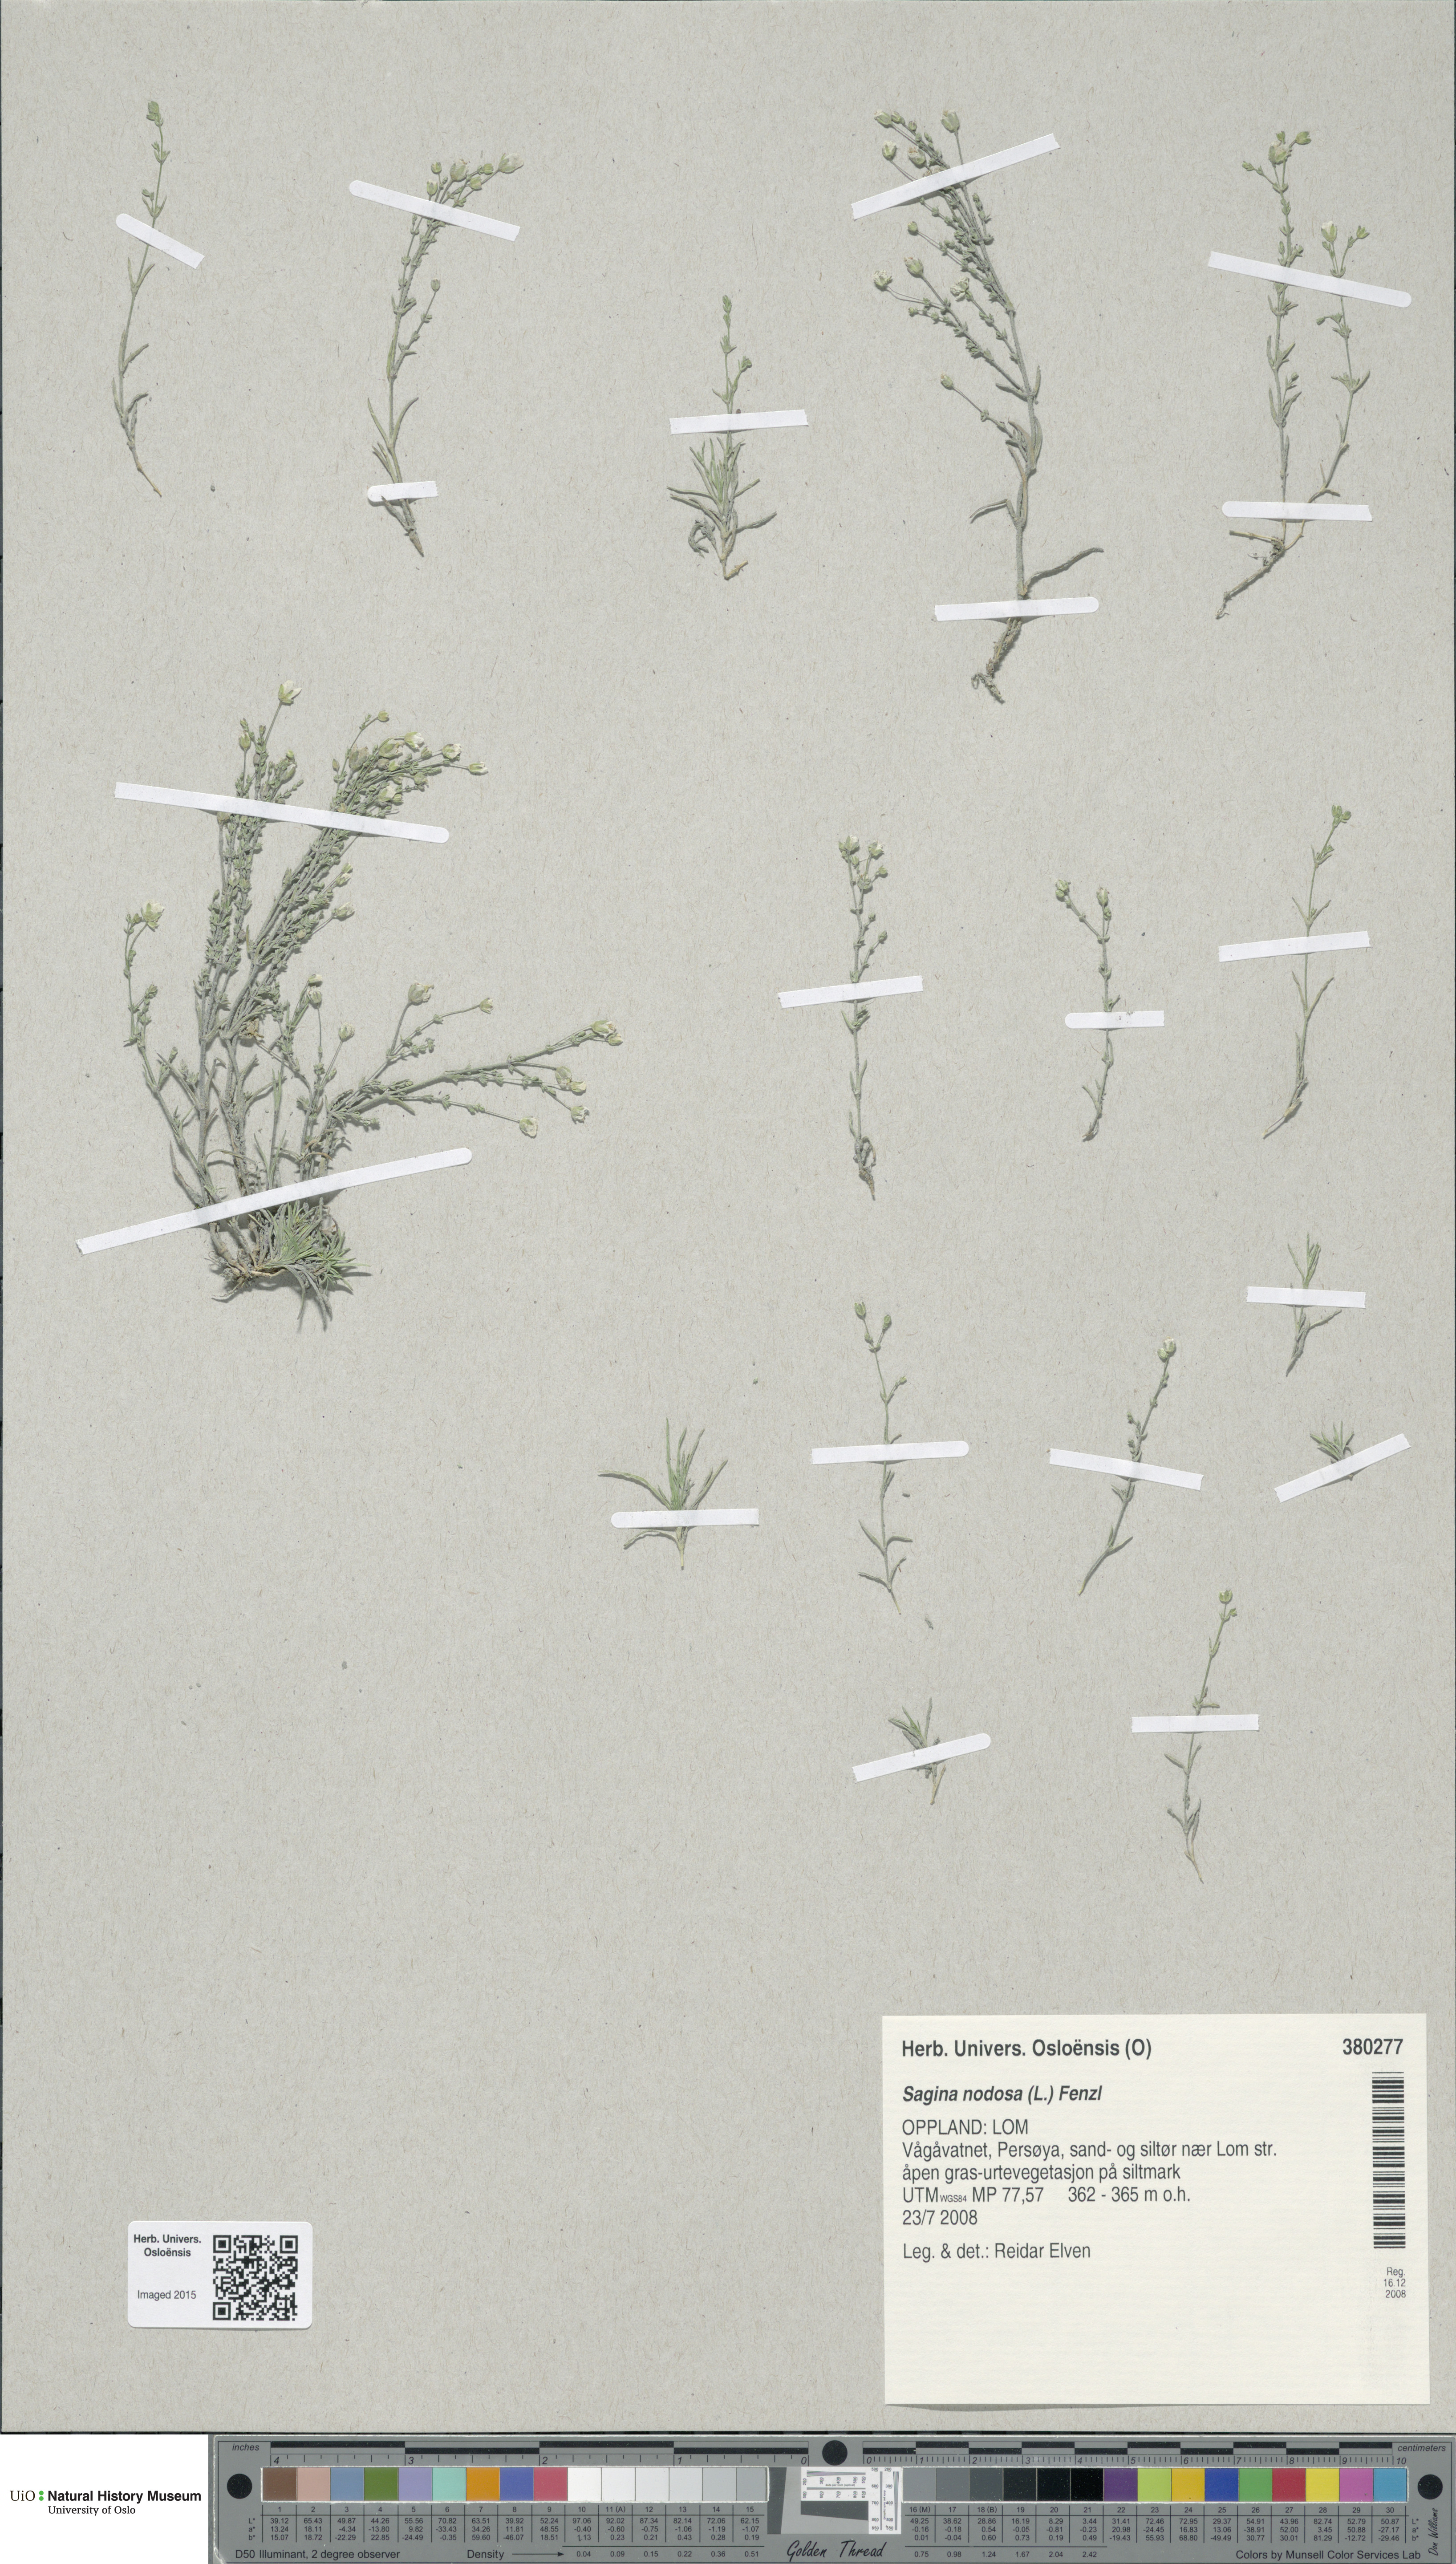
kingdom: Plantae
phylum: Tracheophyta
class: Magnoliopsida
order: Caryophyllales
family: Caryophyllaceae
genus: Sagina
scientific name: Sagina nodosa
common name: Knotted pearlwort
